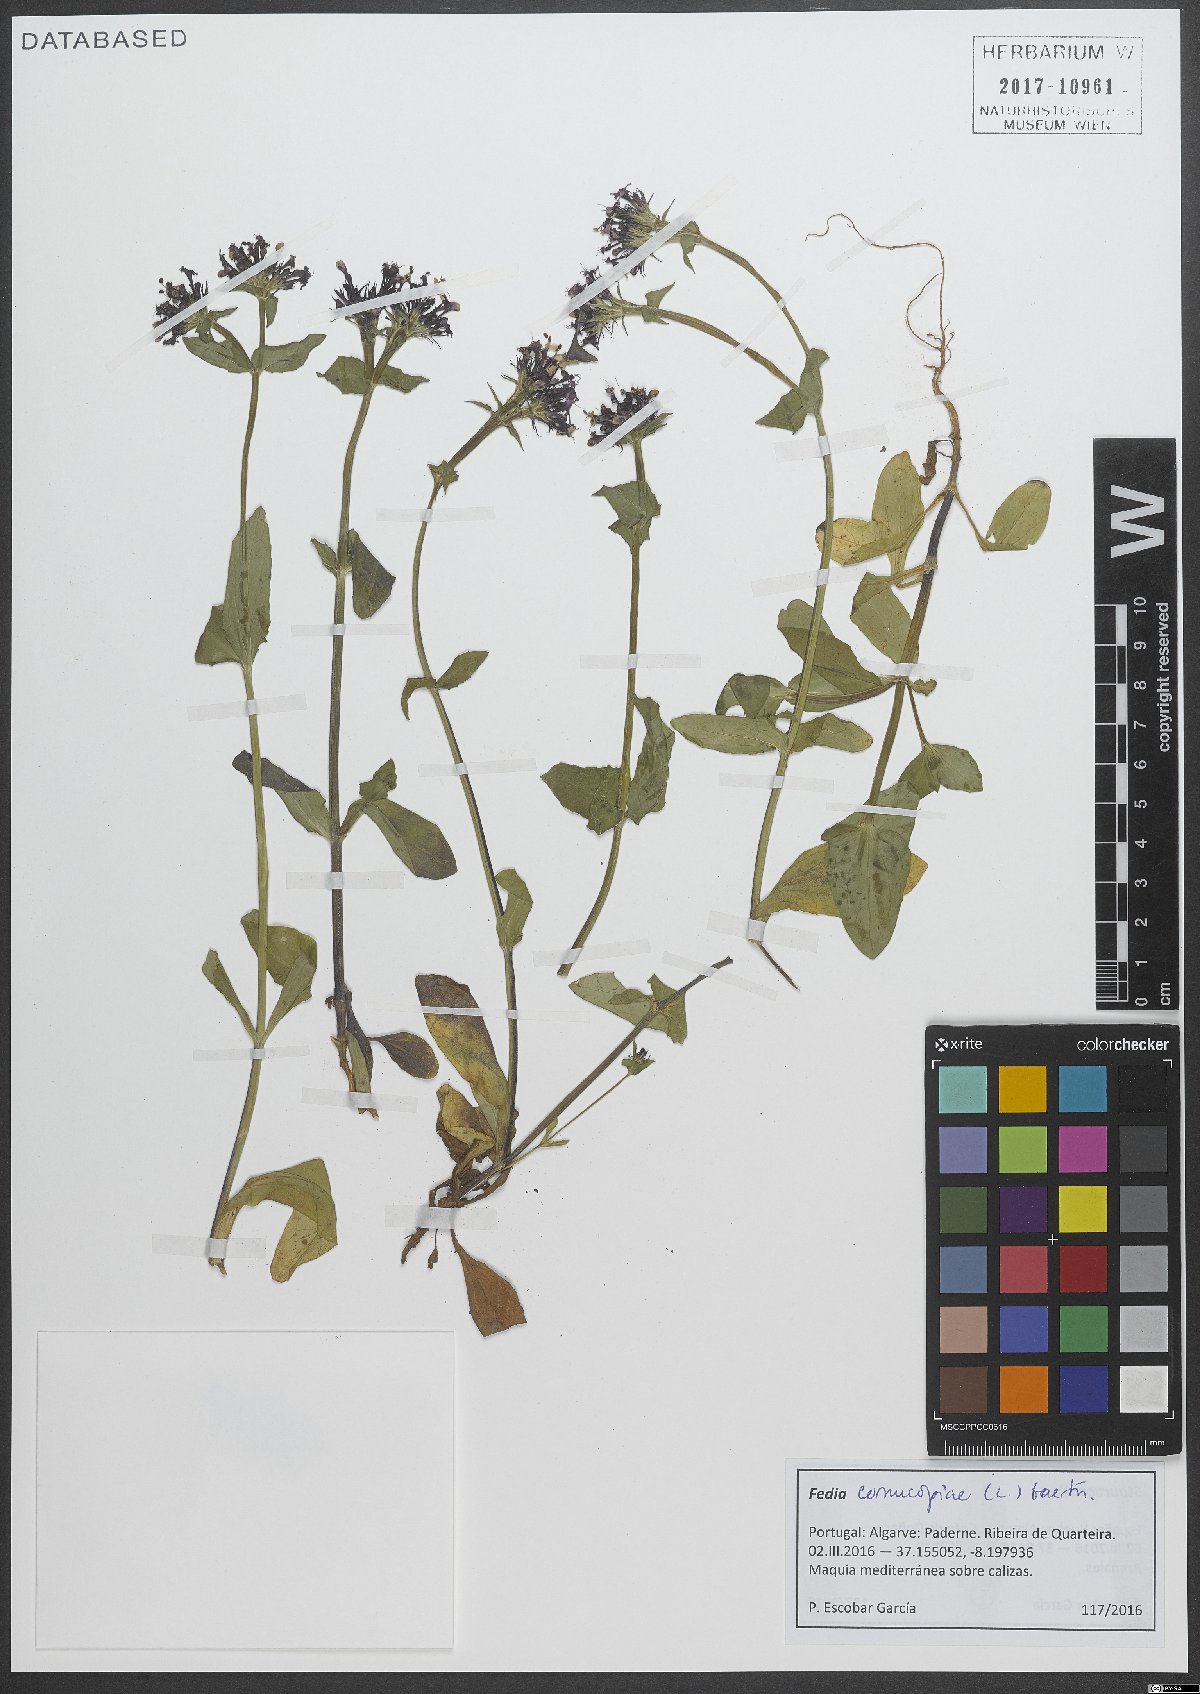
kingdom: Plantae
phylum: Tracheophyta
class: Magnoliopsida
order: Dipsacales
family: Caprifoliaceae
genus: Fedia
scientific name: Fedia cornucopiae
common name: Horn-of-plenty
